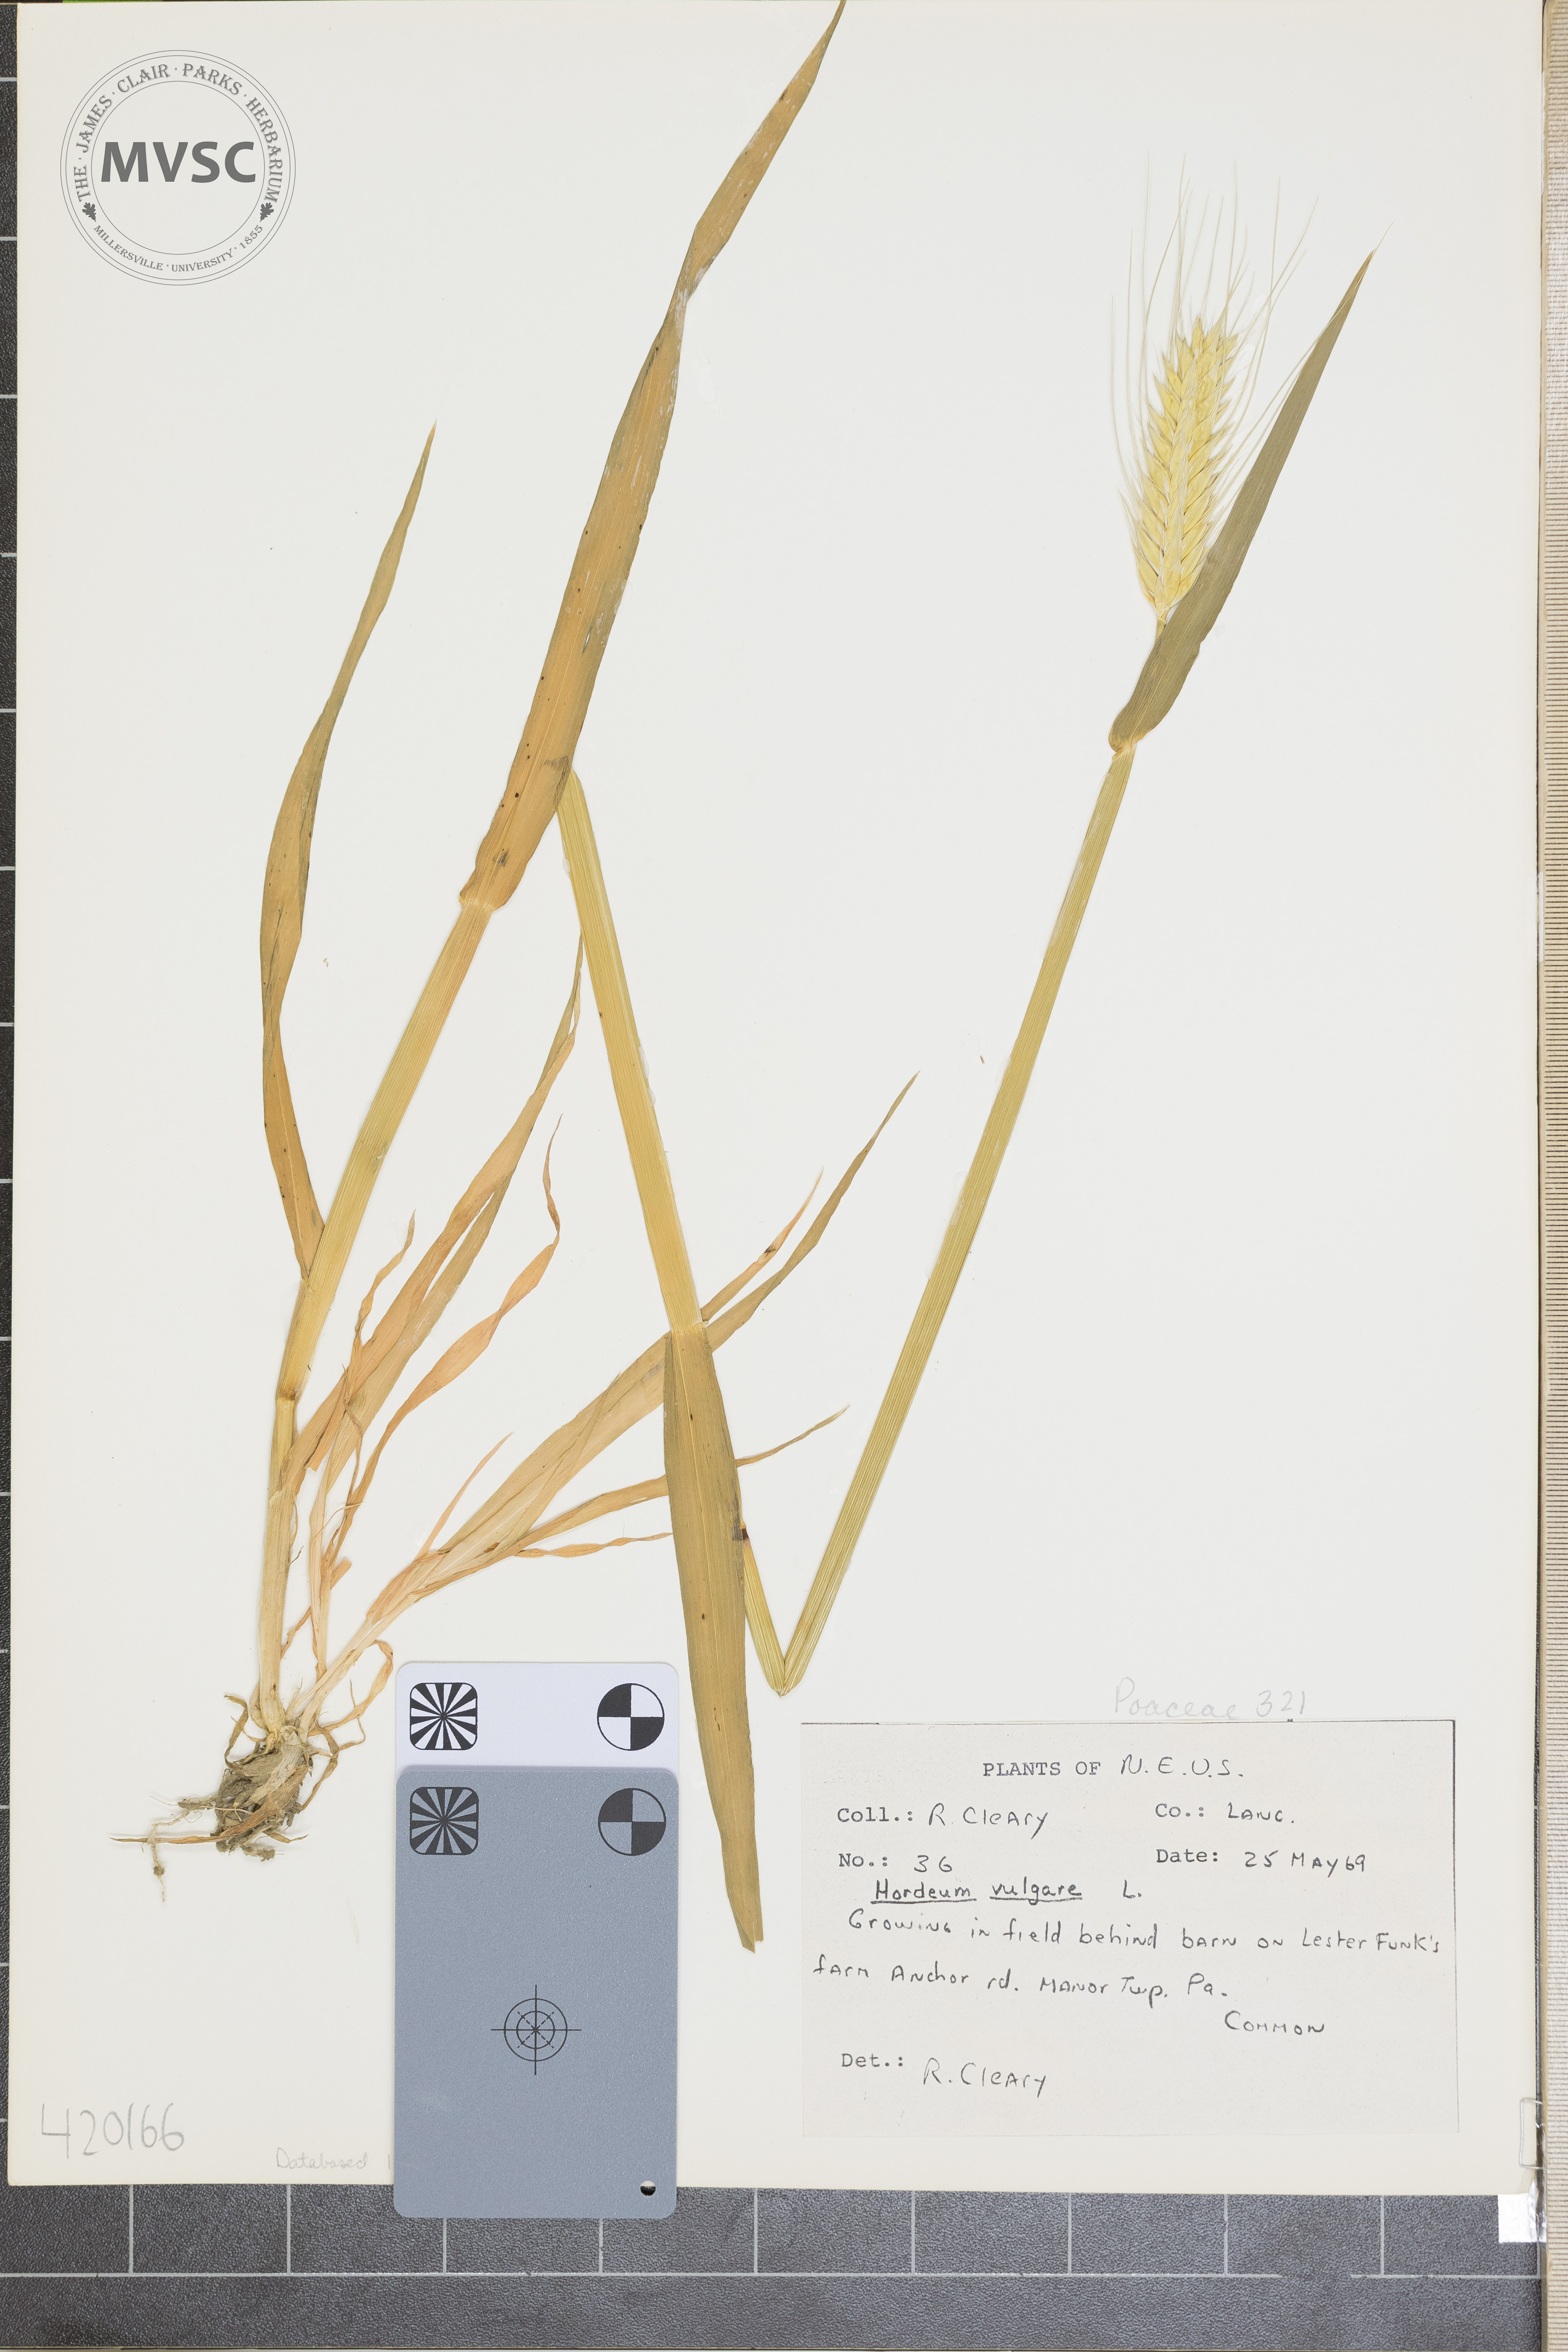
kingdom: Plantae
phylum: Tracheophyta
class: Liliopsida
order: Poales
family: Poaceae
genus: Hordeum
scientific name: Hordeum vulgare
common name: Barley
